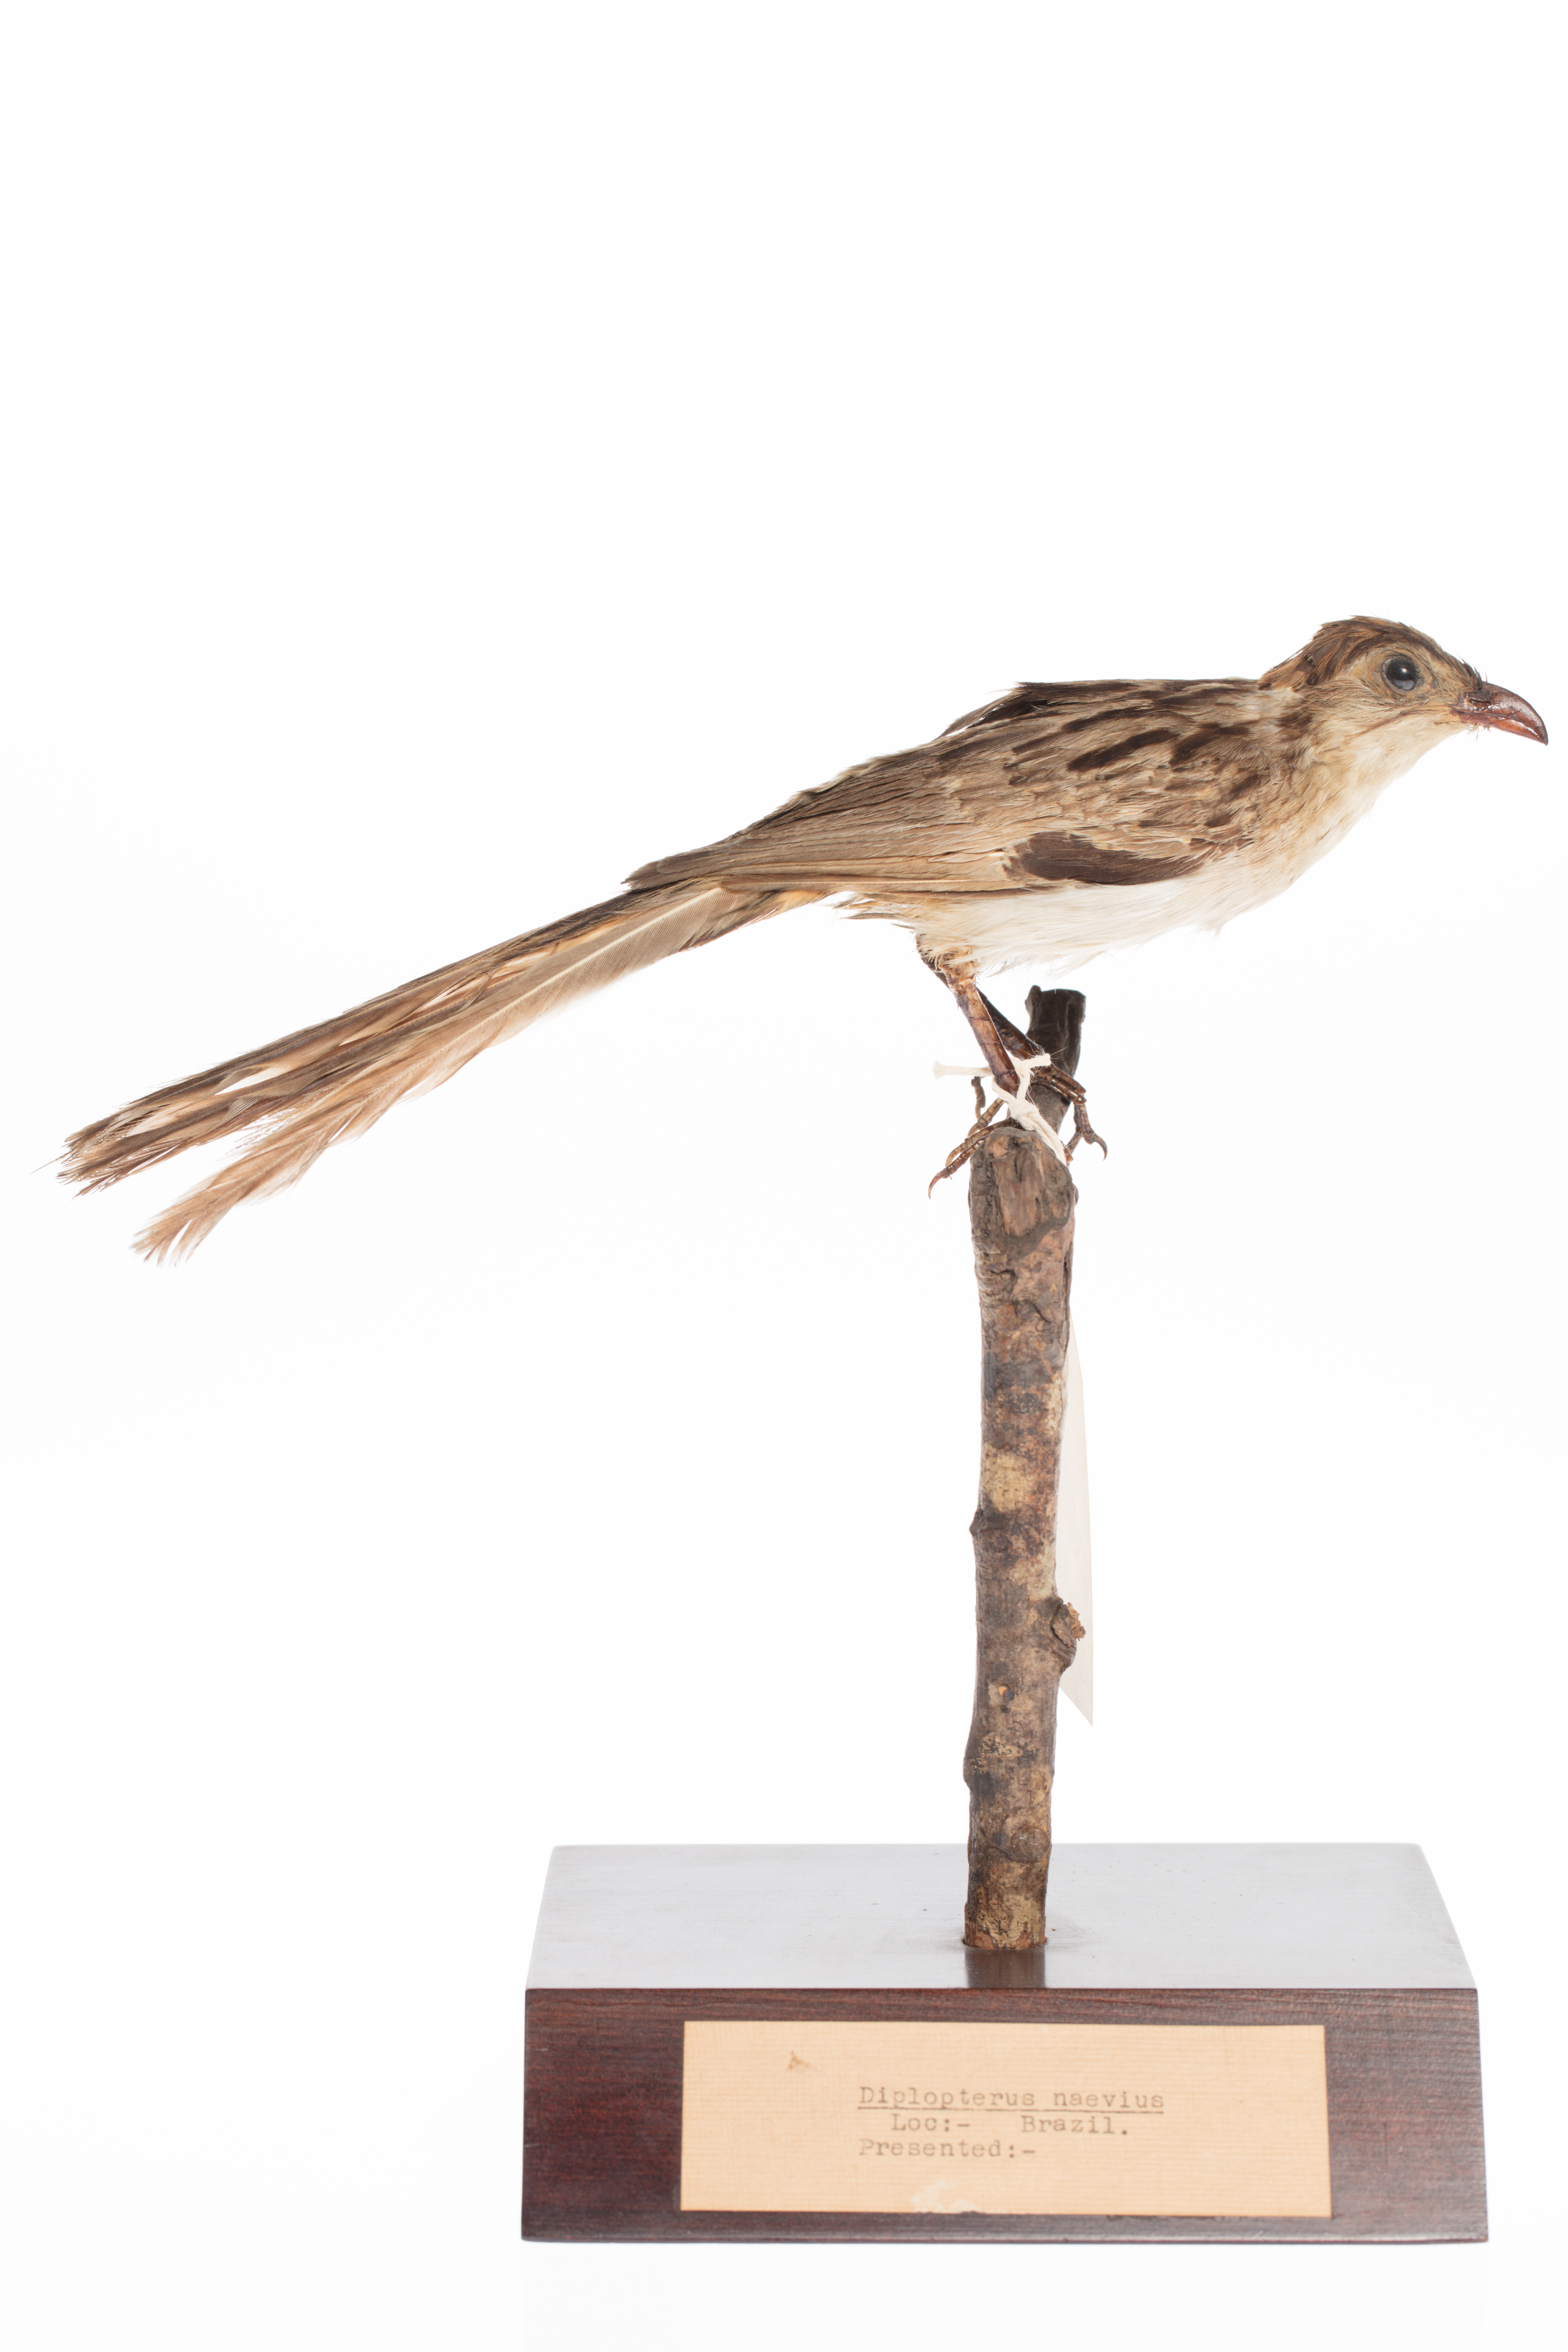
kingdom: Animalia
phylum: Chordata
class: Aves
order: Cuculiformes
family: Cuculidae
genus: Tapera
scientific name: Tapera naevia
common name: Striped cuckoo
